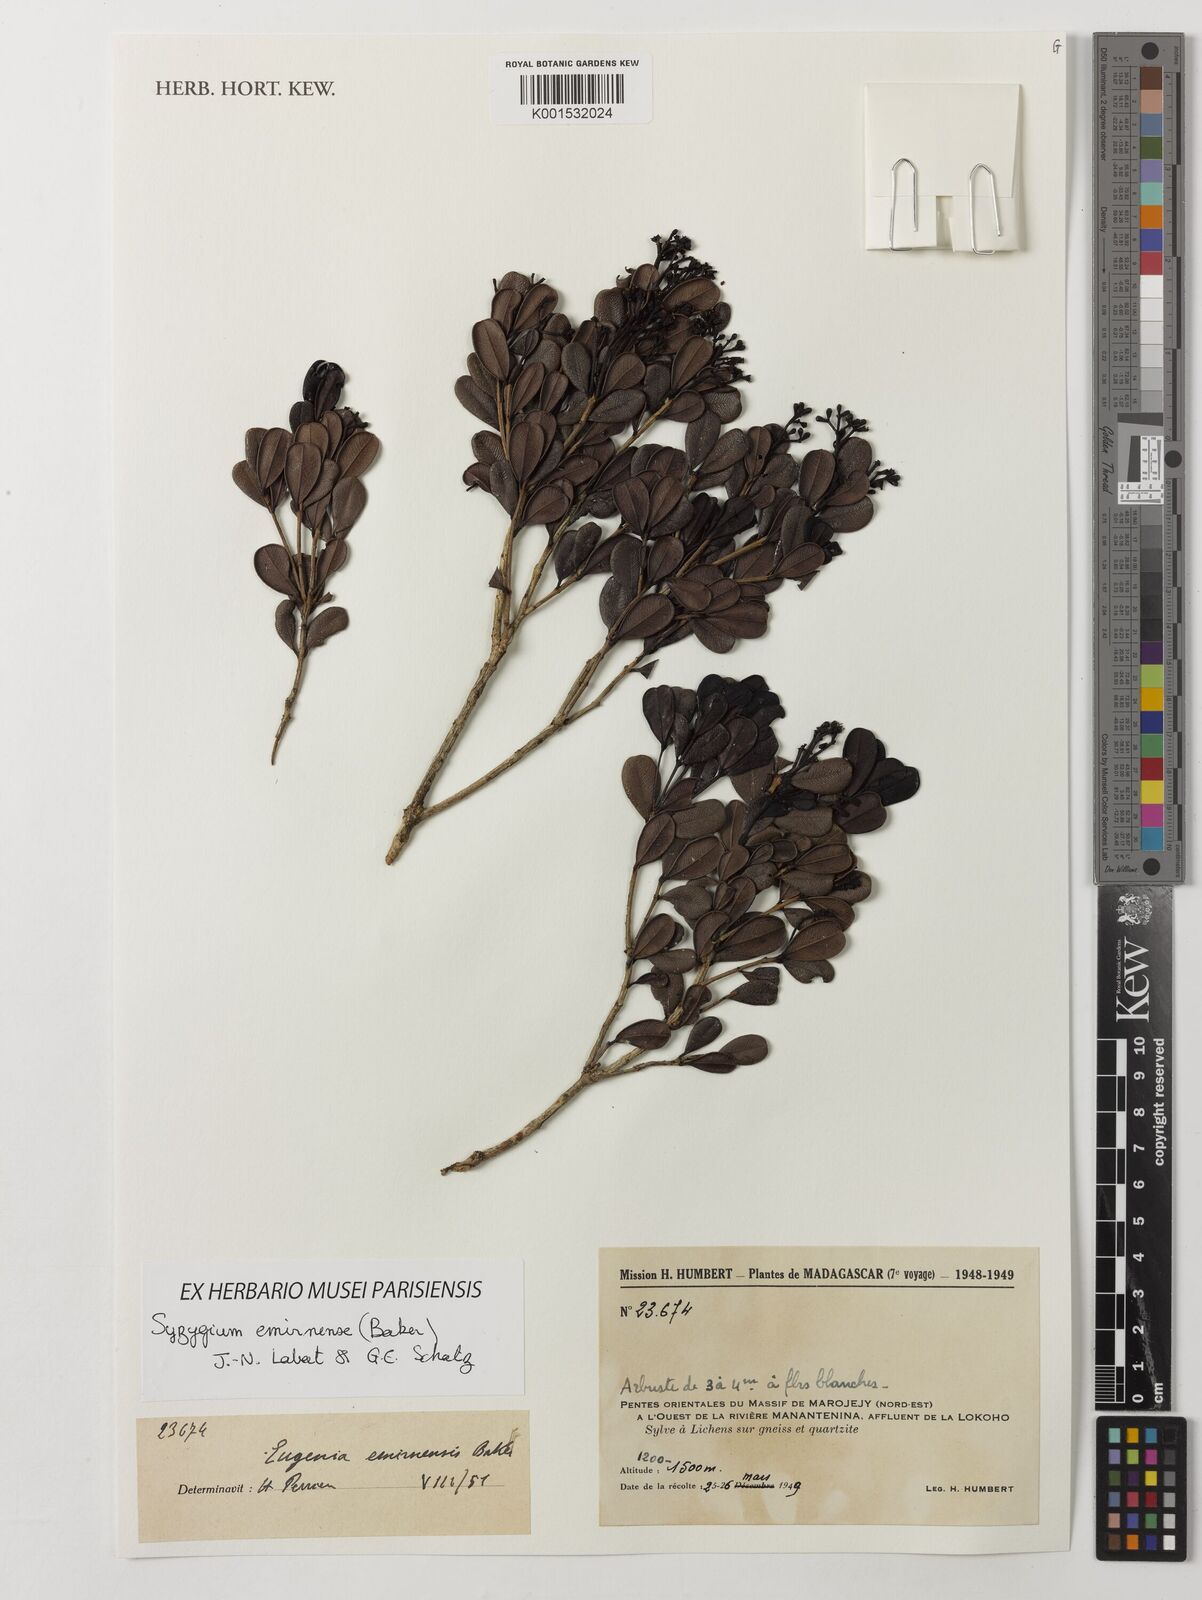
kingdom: Plantae
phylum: Tracheophyta
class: Magnoliopsida
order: Myrtales
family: Myrtaceae
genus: Syzygium
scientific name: Syzygium emirnense
